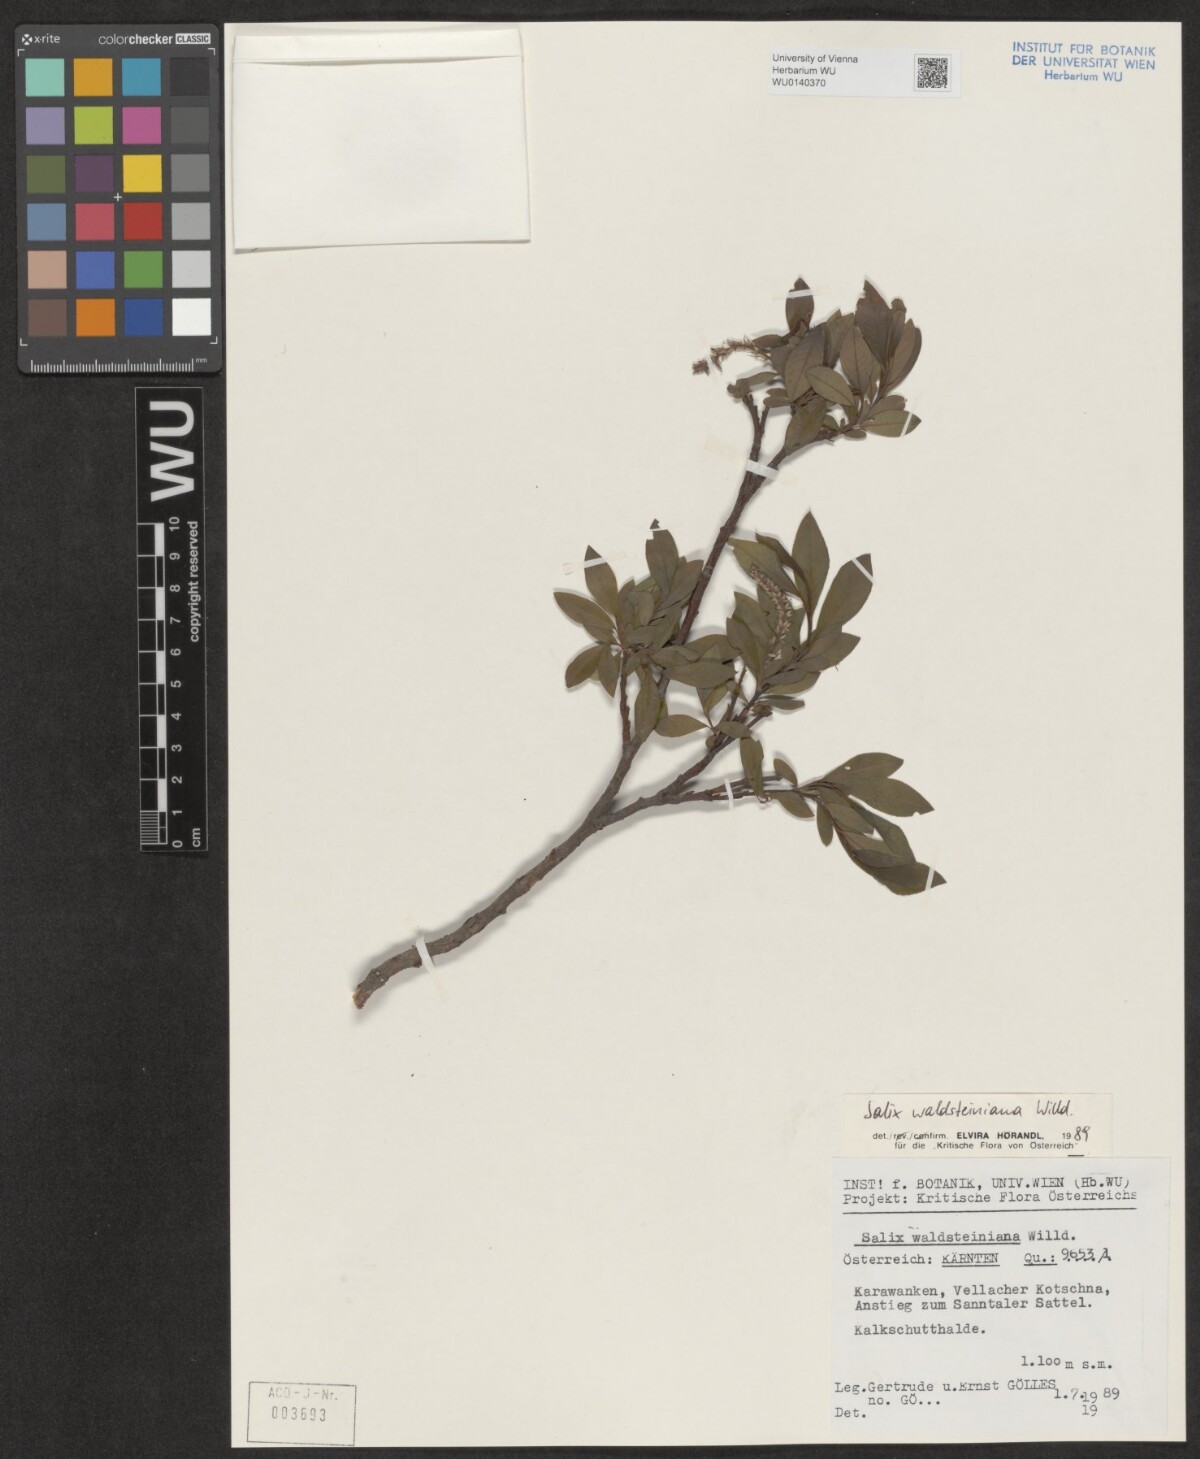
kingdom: Plantae
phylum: Tracheophyta
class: Magnoliopsida
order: Malpighiales
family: Salicaceae
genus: Salix
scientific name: Salix waldsteiniana
